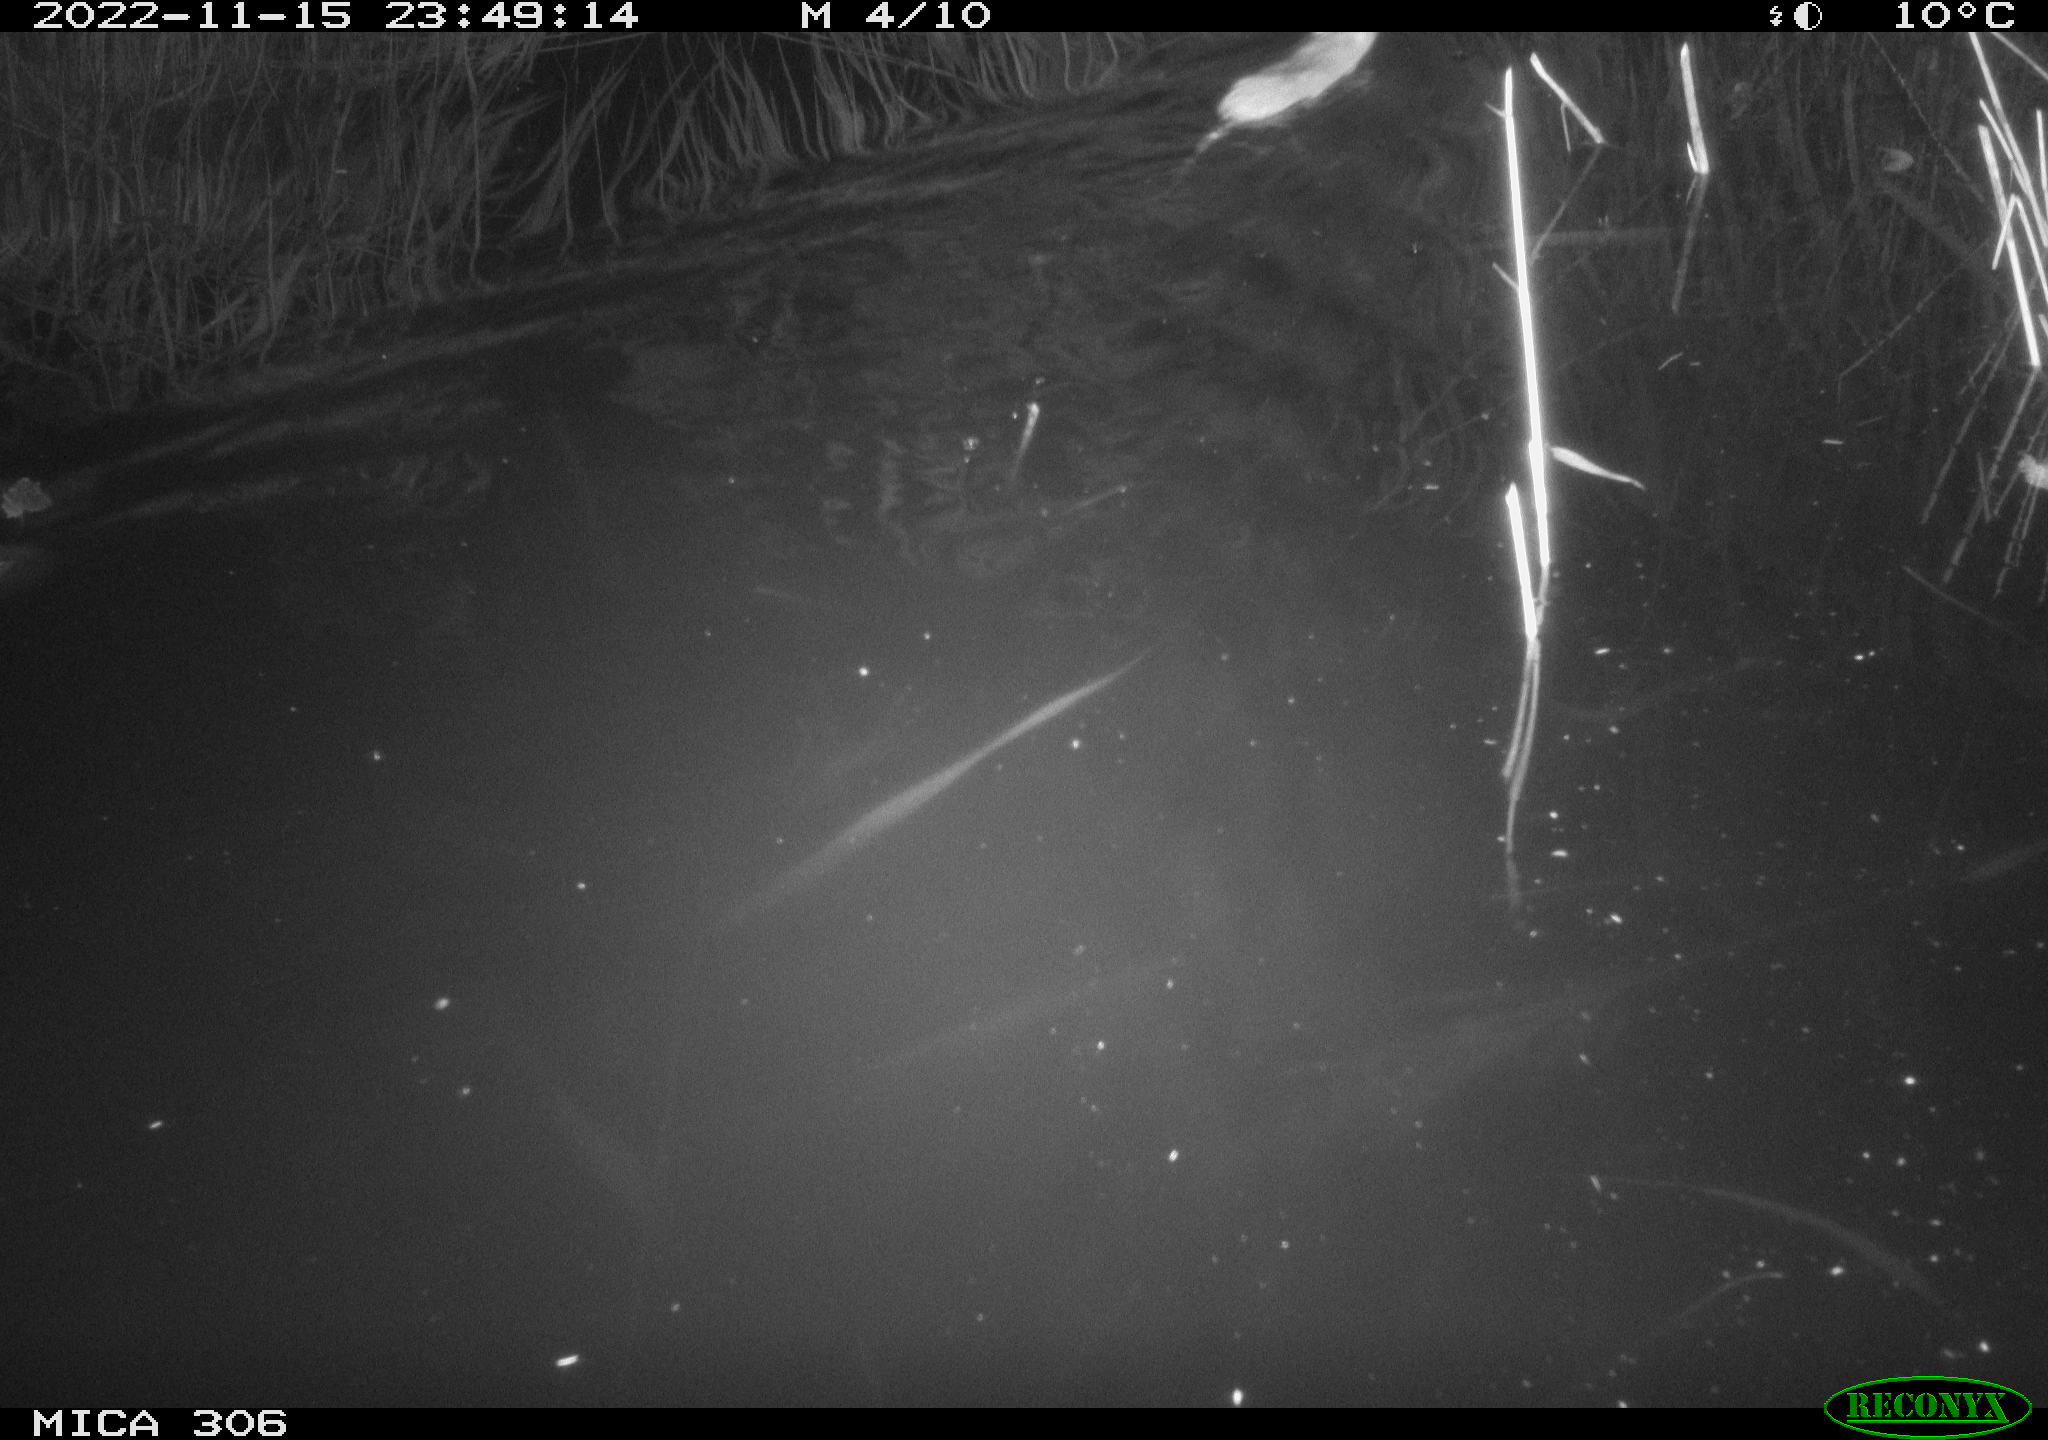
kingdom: Animalia
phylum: Chordata
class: Mammalia
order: Rodentia
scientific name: Rodentia
